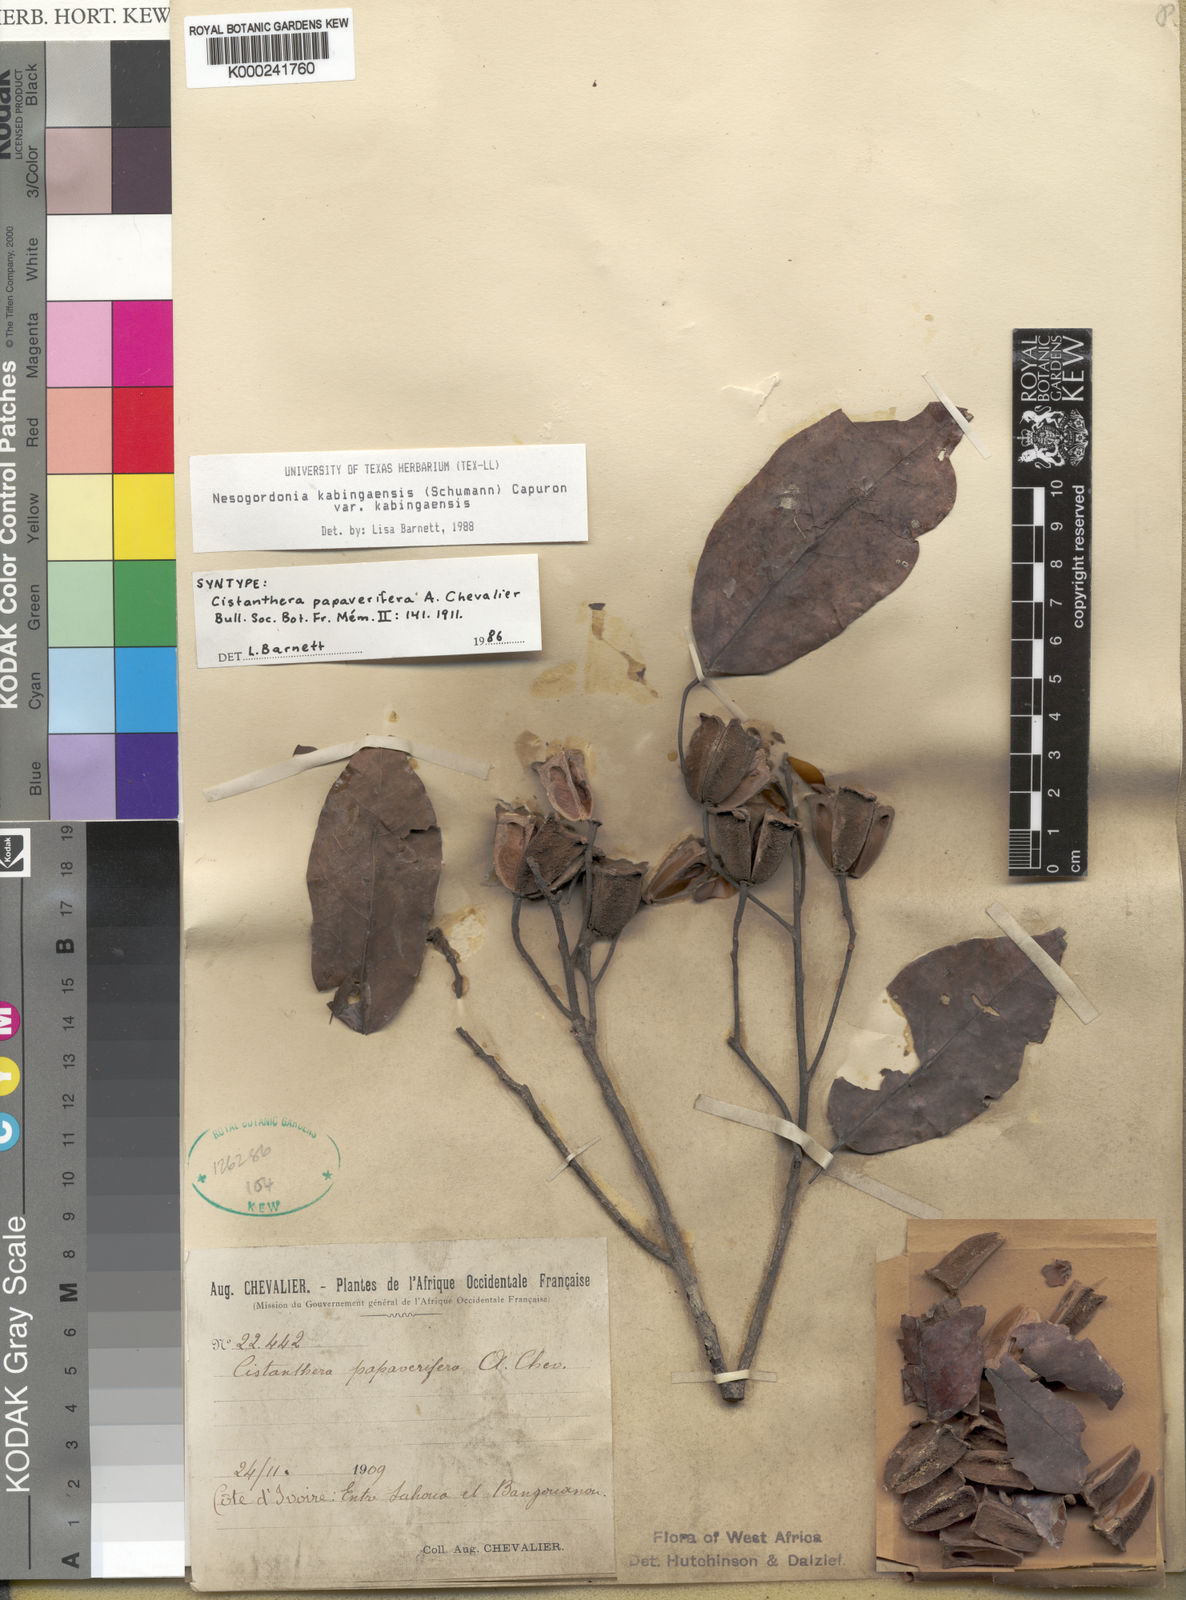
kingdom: Plantae
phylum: Tracheophyta
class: Magnoliopsida
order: Malvales
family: Malvaceae
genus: Nesogordonia
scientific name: Nesogordonia
